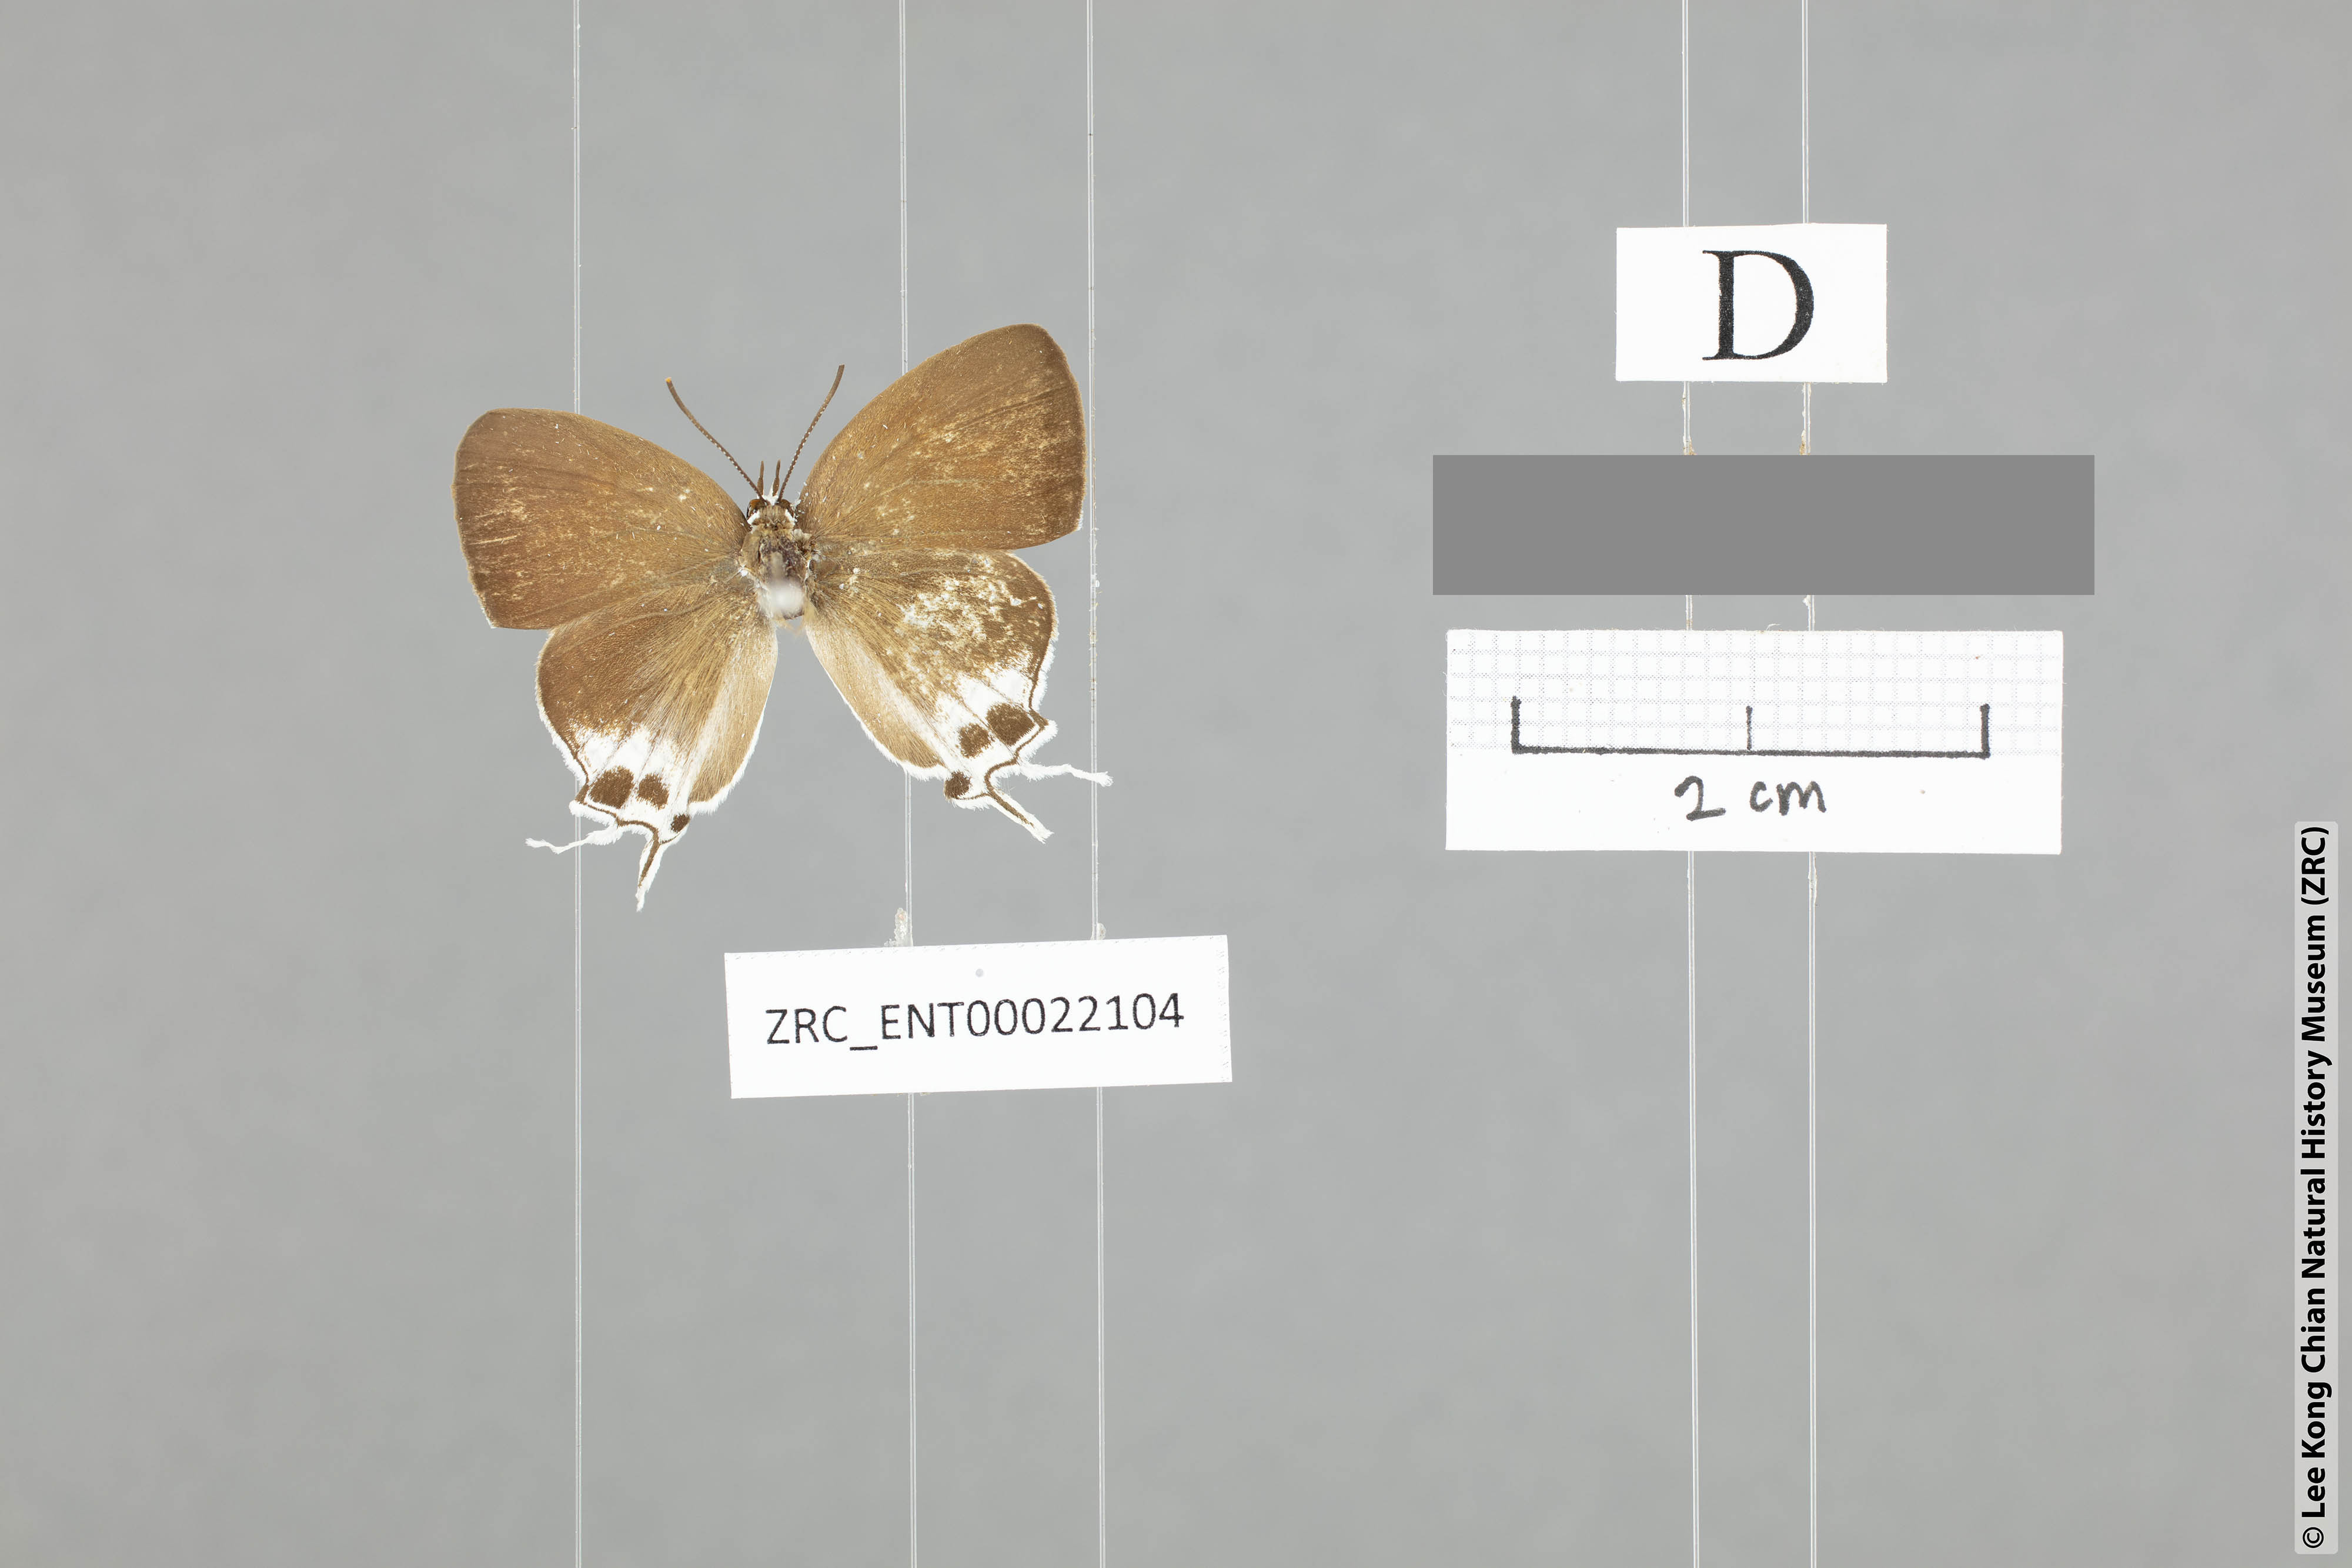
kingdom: Animalia
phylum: Arthropoda
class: Insecta
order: Lepidoptera
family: Lycaenidae
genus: Suasa
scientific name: Suasa lisides
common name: Red imperial
